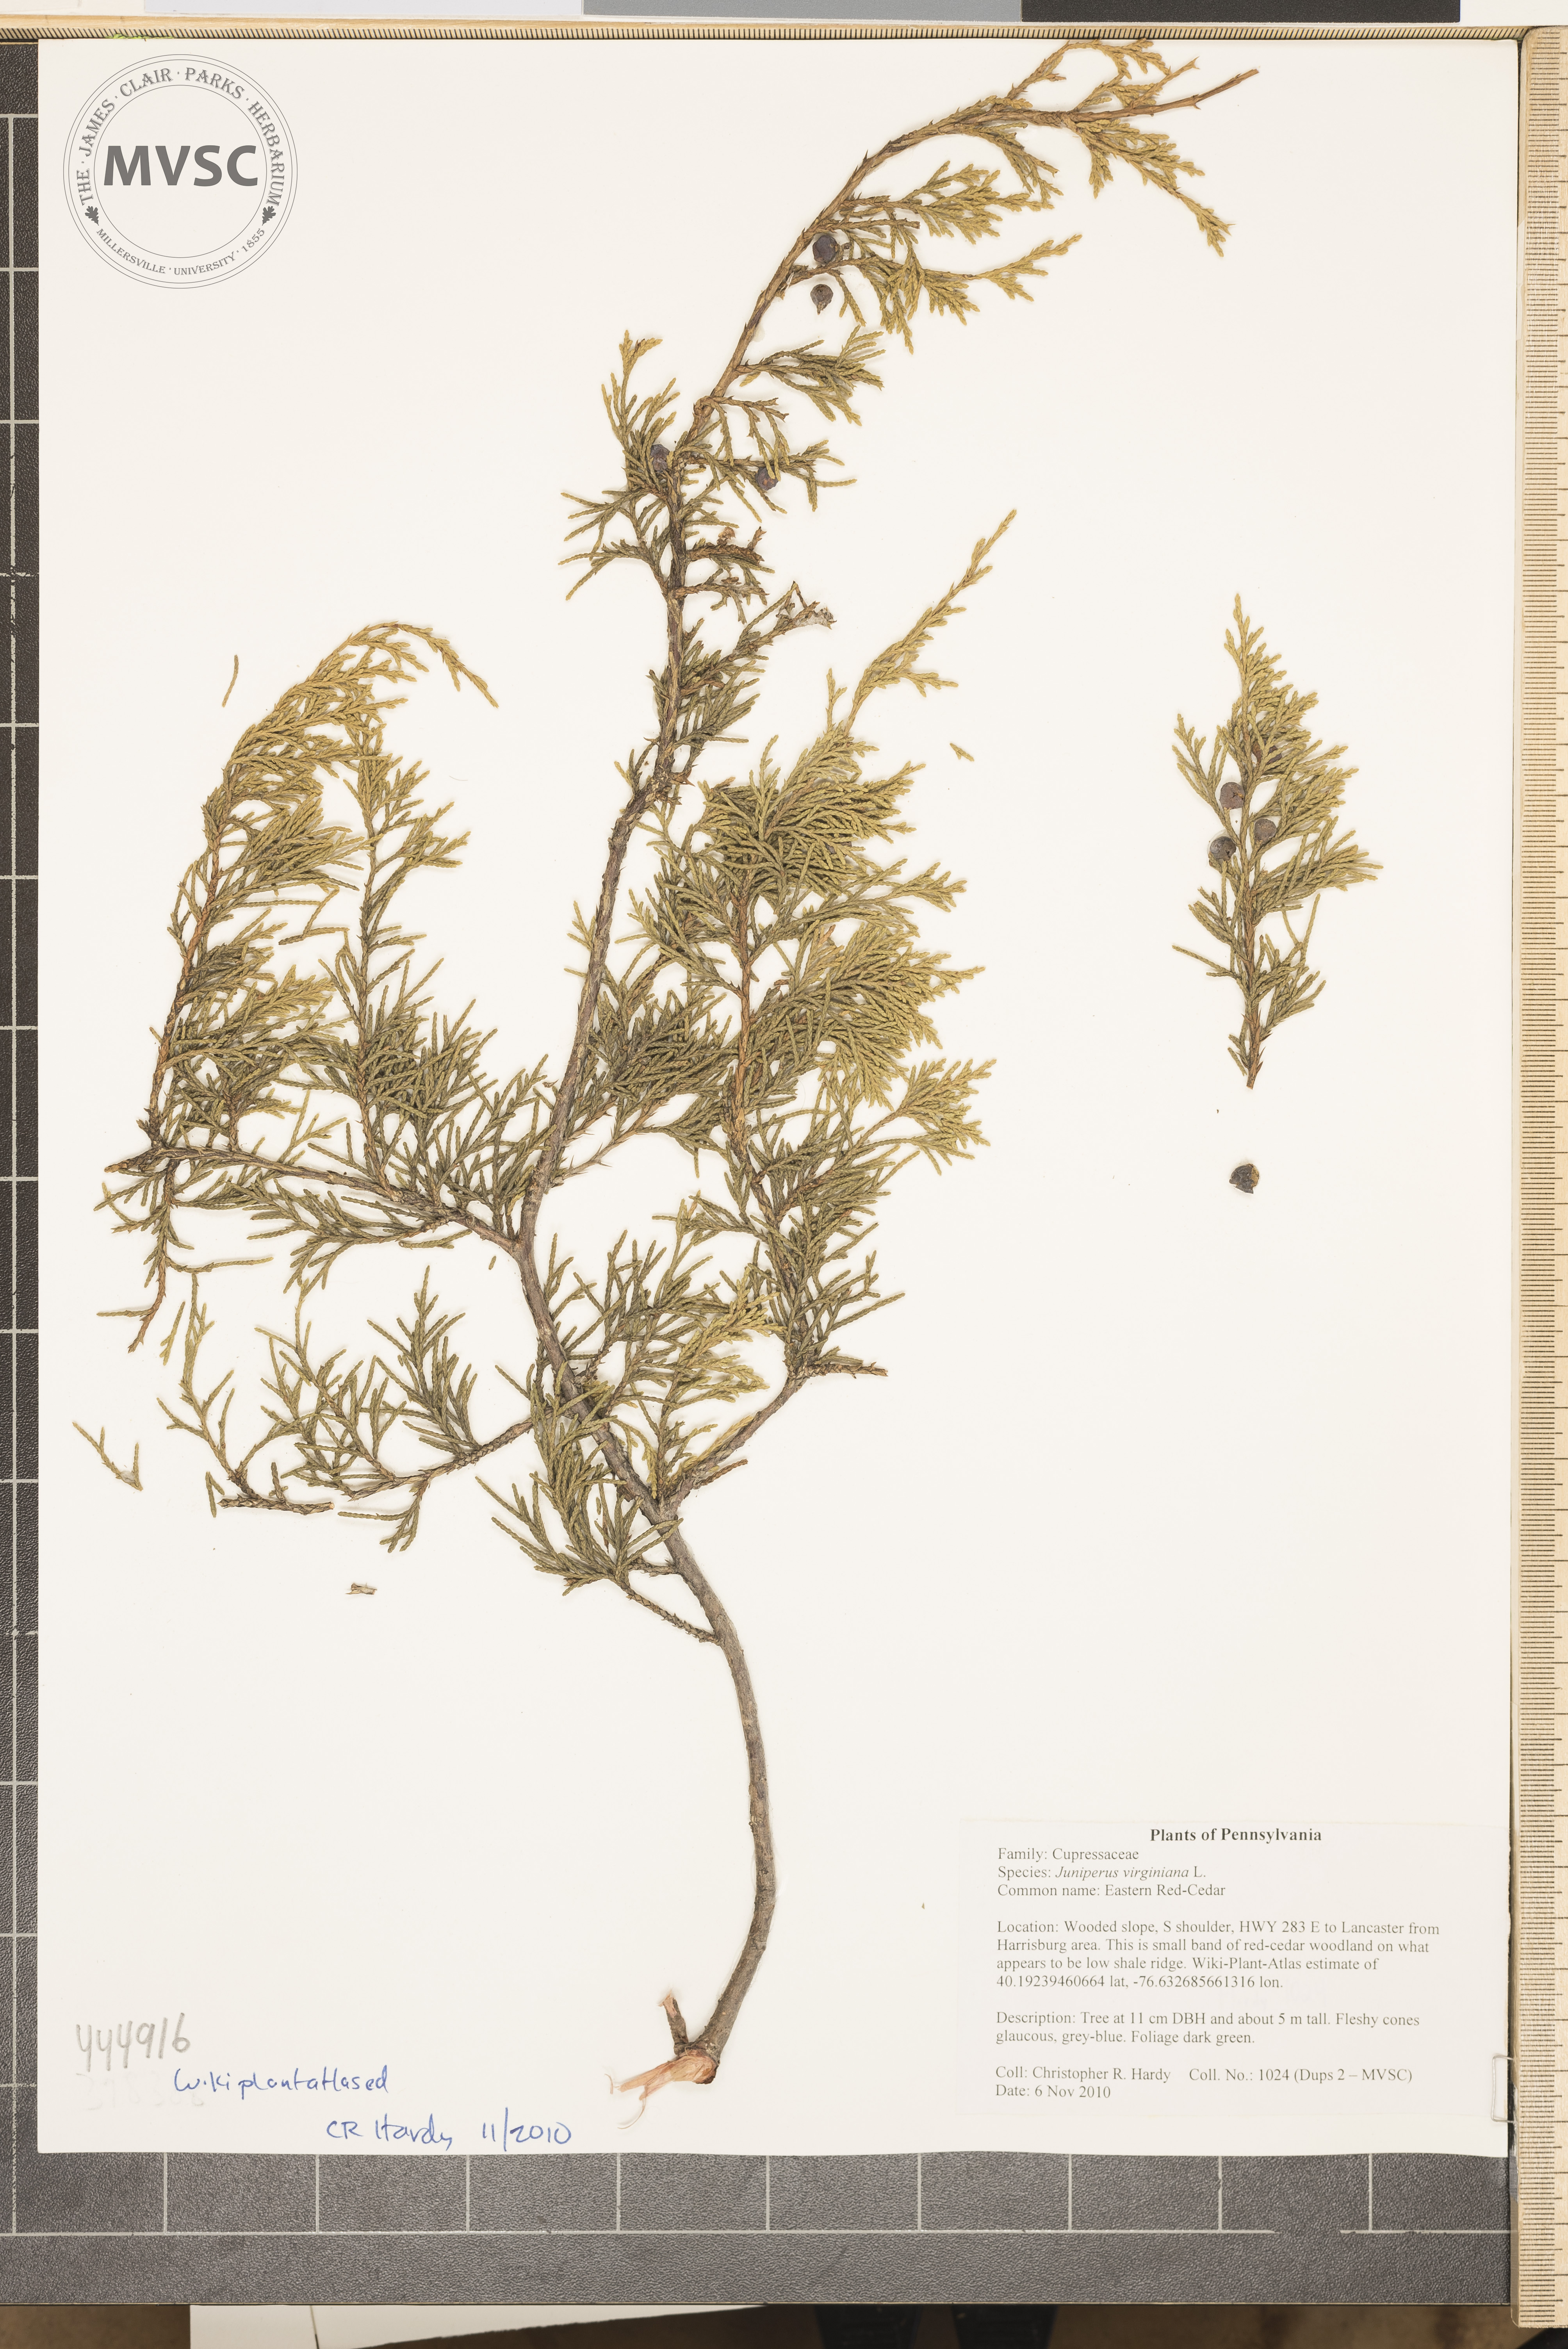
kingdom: Plantae
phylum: Tracheophyta
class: Pinopsida
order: Pinales
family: Cupressaceae
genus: Juniperus
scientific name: Juniperus virginiana
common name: Eastern red-cedar
